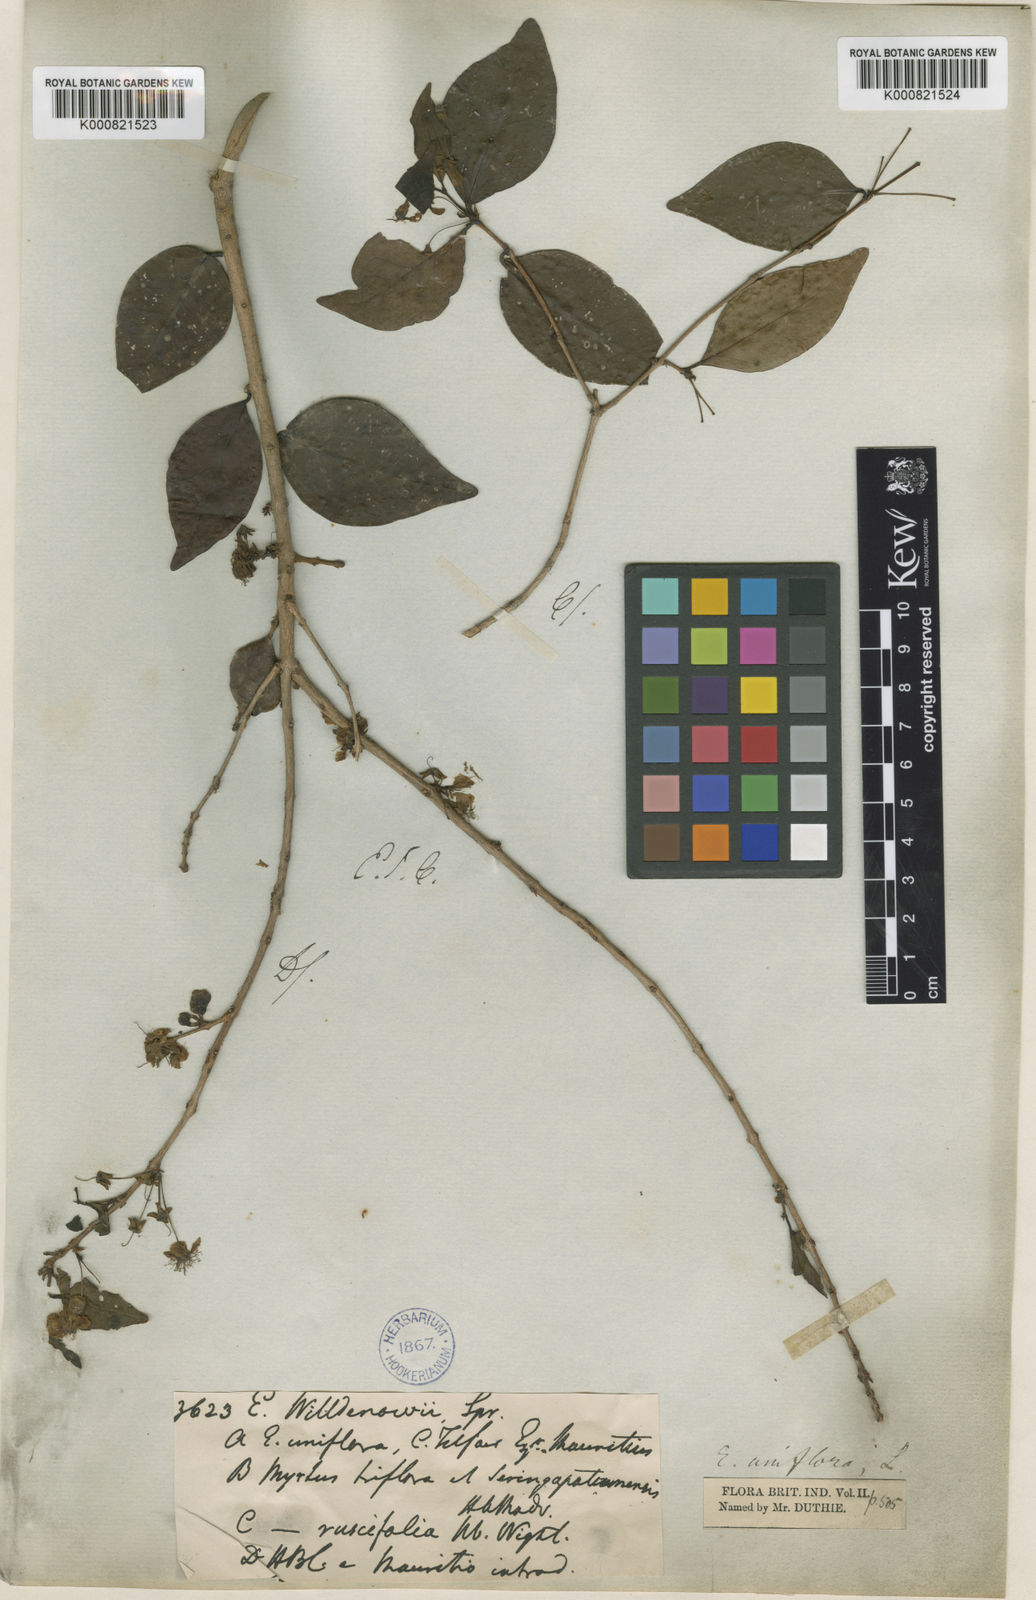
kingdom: Plantae
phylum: Tracheophyta
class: Magnoliopsida
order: Myrtales
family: Myrtaceae
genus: Eugenia
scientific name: Eugenia uniflora
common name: Surinam cherry
